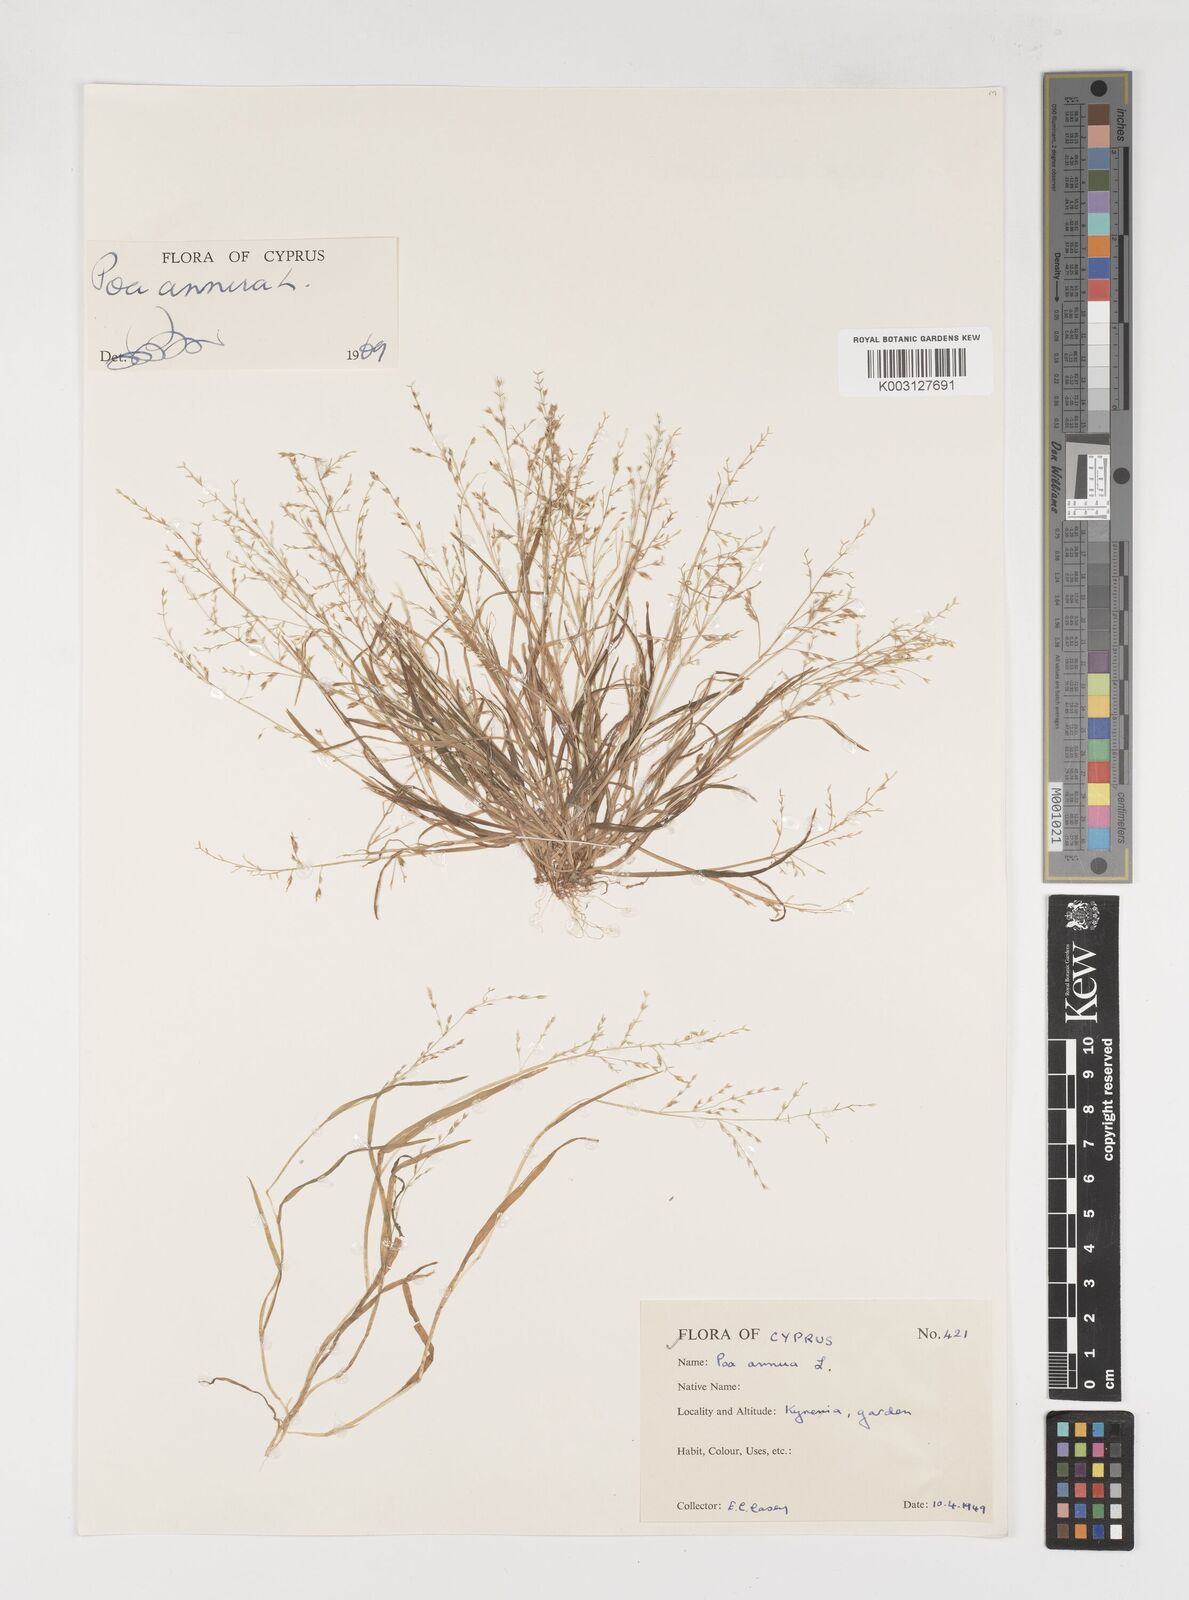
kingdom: Plantae
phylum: Tracheophyta
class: Liliopsida
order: Poales
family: Poaceae
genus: Poa
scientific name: Poa annua
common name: Annual bluegrass
